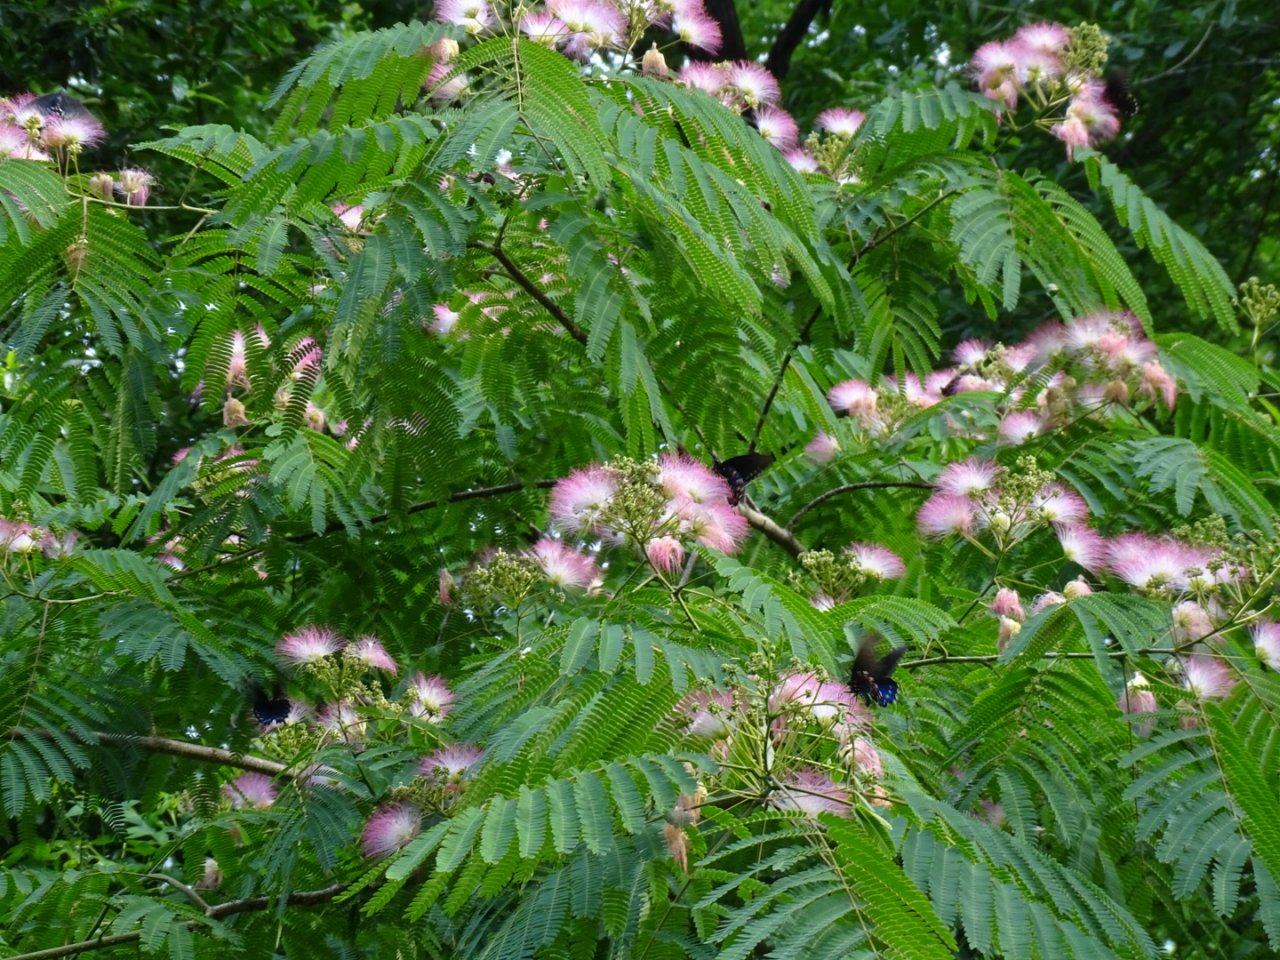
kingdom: Animalia
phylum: Arthropoda
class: Insecta
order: Lepidoptera
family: Papilionidae
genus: Battus
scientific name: Battus philenor
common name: Pipevine Swallowtail
